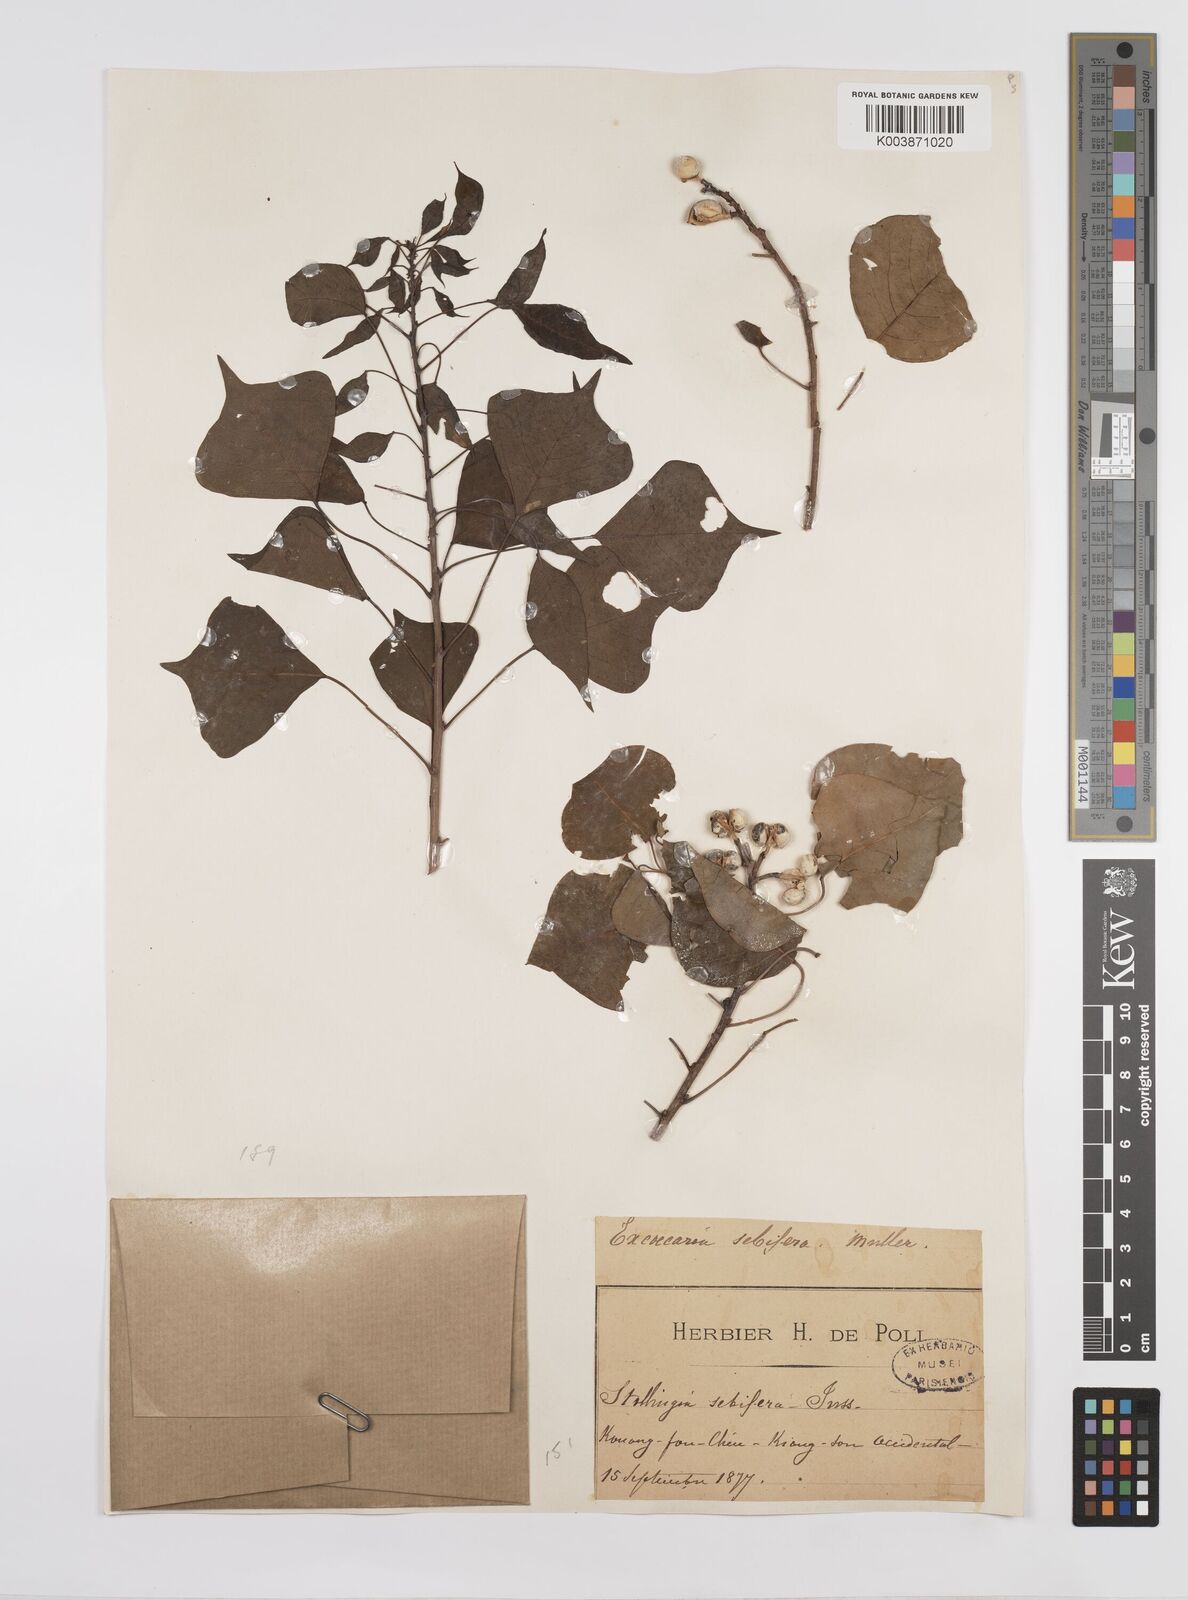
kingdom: Plantae
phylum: Tracheophyta
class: Magnoliopsida
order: Malpighiales
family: Euphorbiaceae
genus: Triadica
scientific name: Triadica sebifera
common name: Chinese tallow
